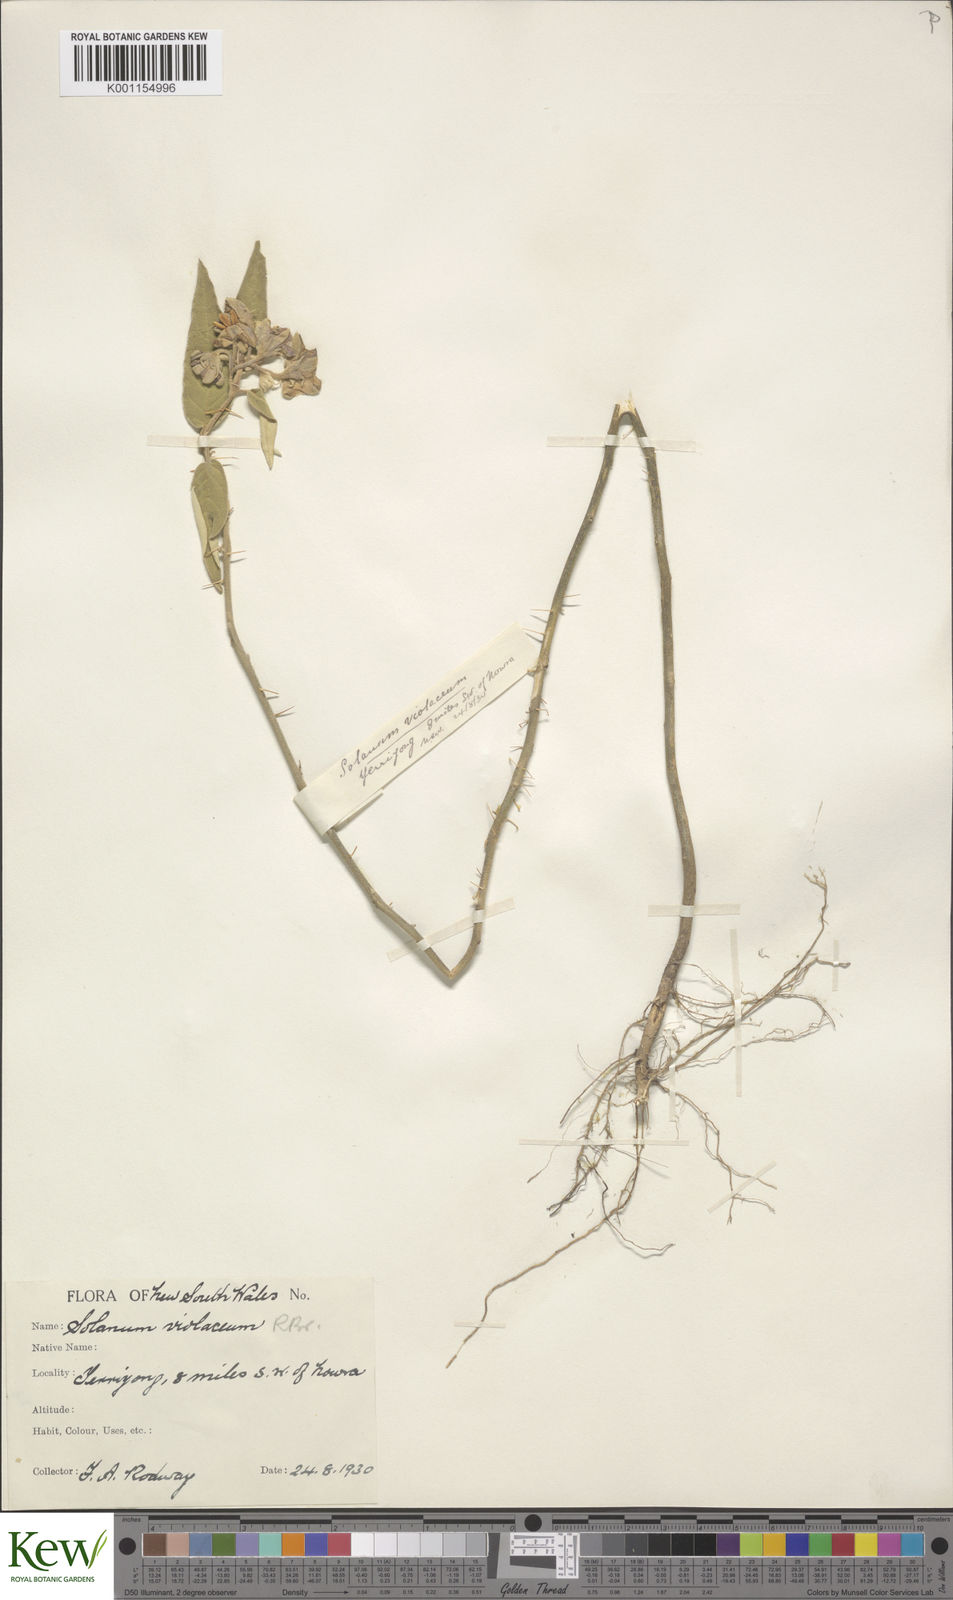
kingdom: Plantae
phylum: Tracheophyta
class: Magnoliopsida
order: Solanales
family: Solanaceae
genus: Solanum
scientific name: Solanum brownii
